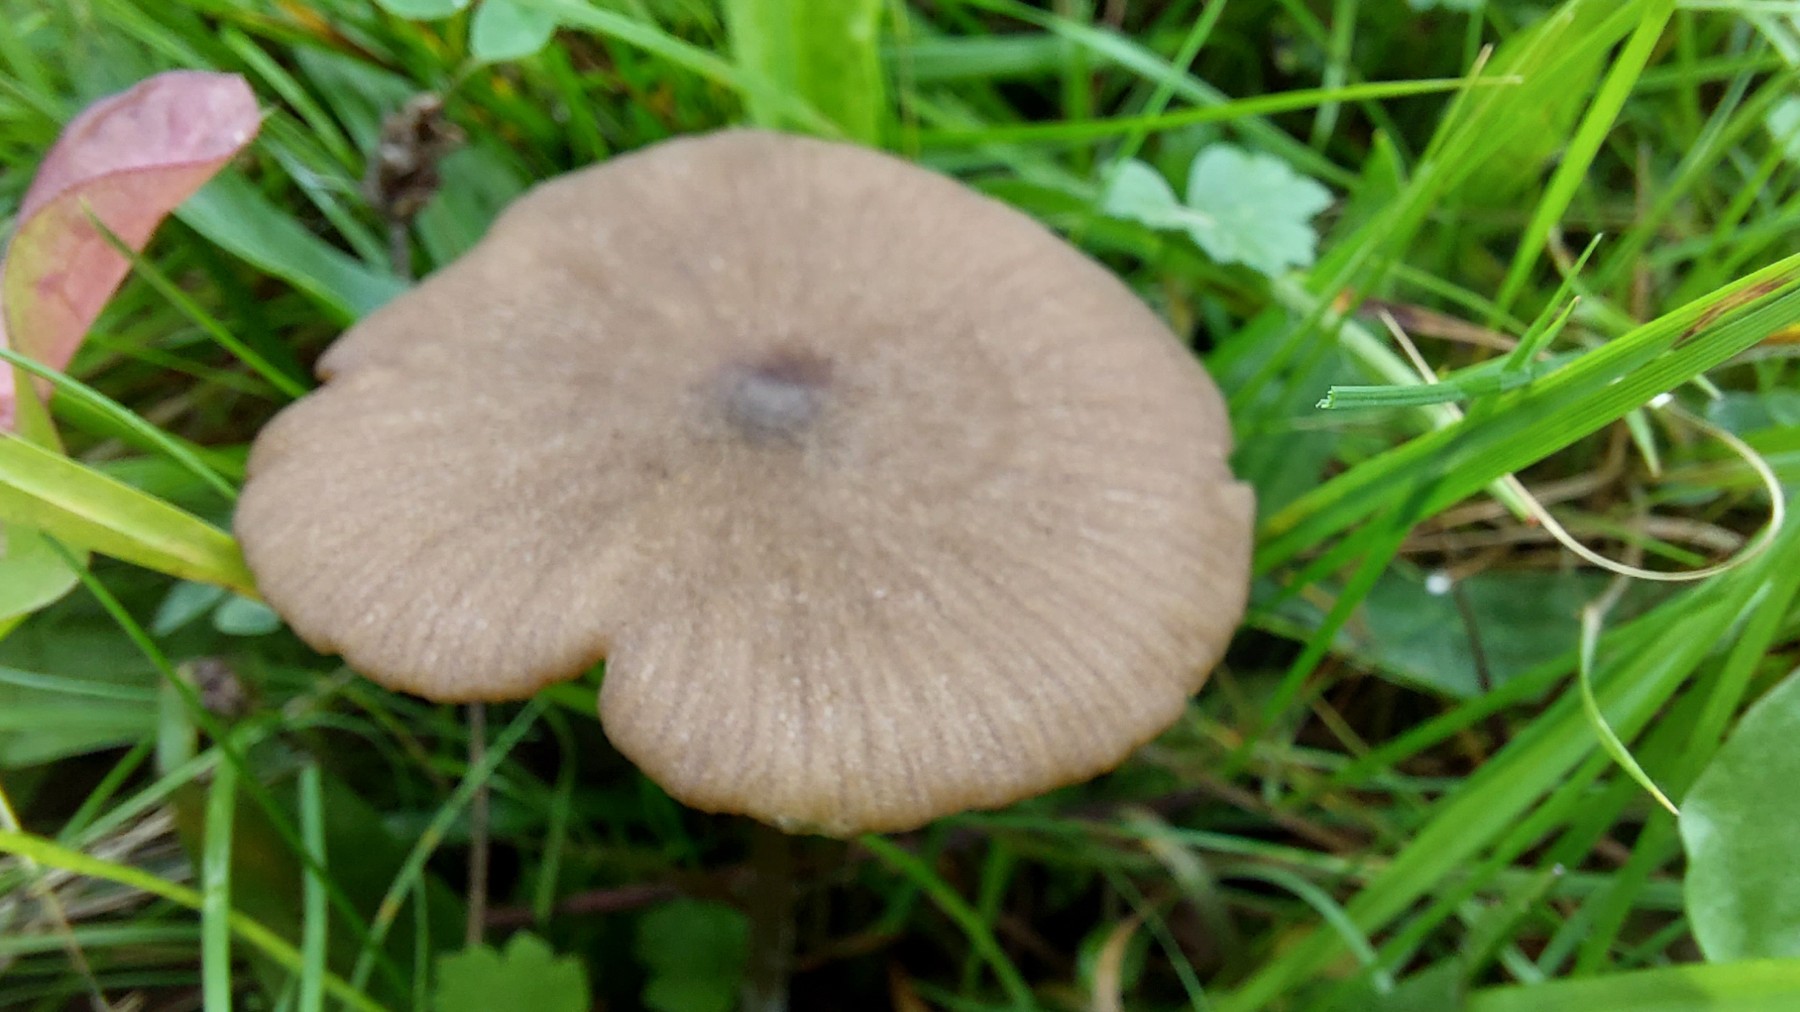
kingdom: Fungi
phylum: Basidiomycota
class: Agaricomycetes
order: Agaricales
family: Entolomataceae
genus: Entoloma
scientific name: Entoloma
